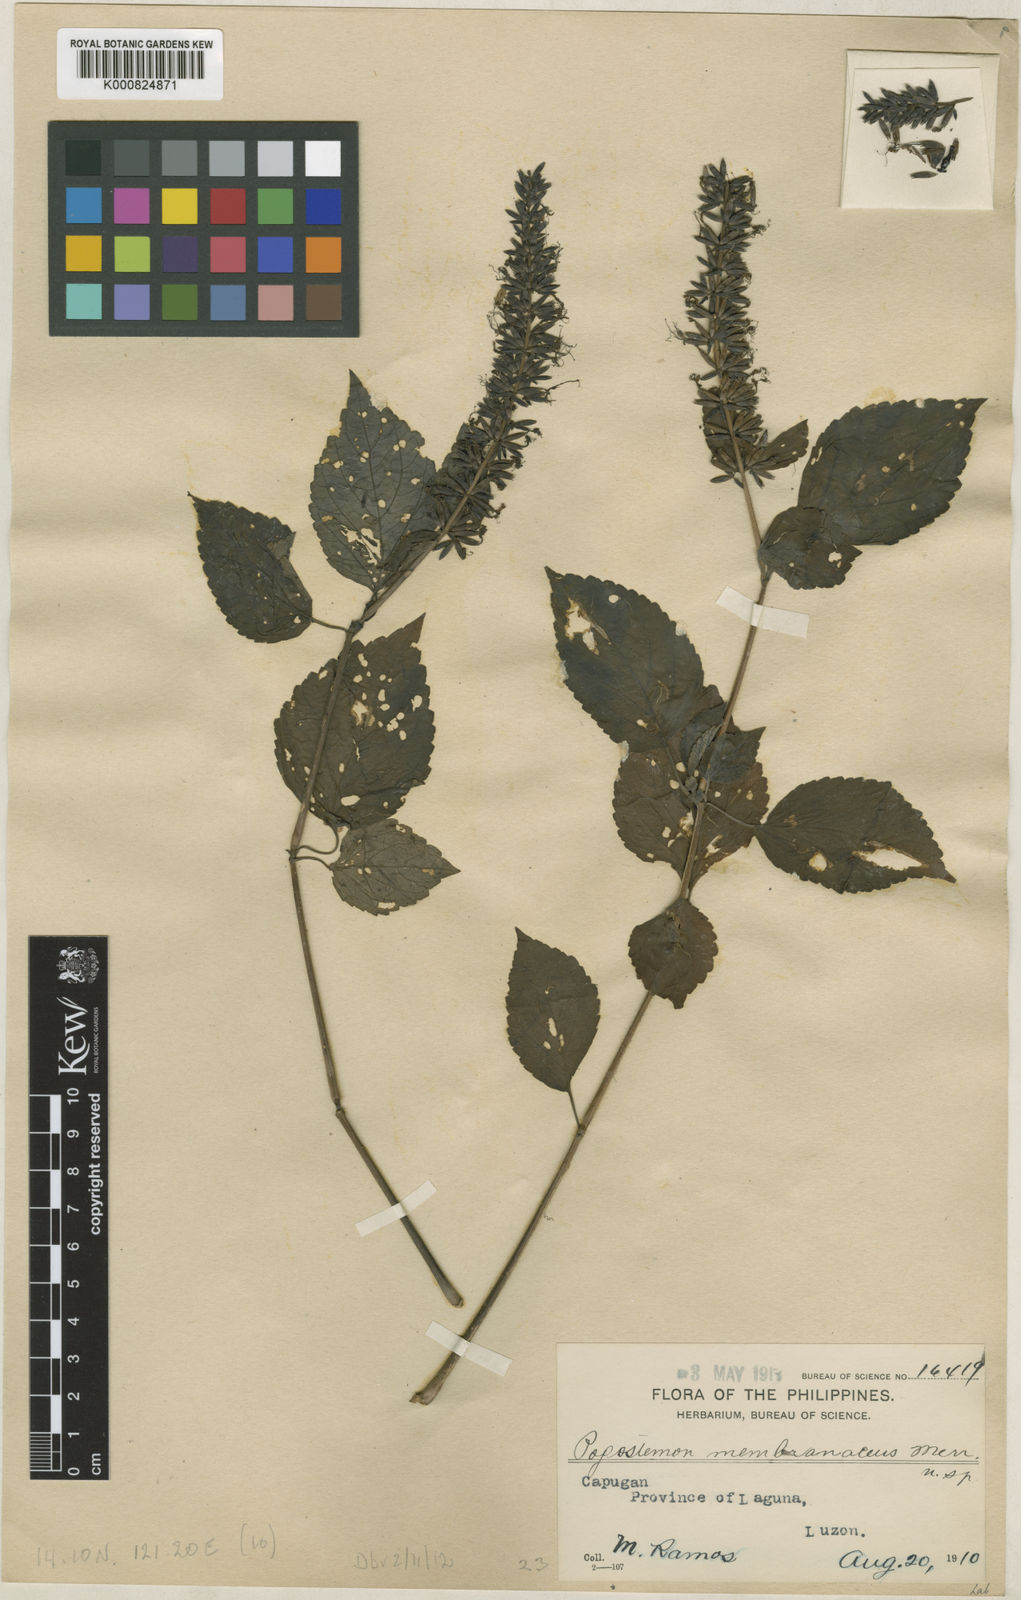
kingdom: Plantae
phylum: Tracheophyta
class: Magnoliopsida
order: Lamiales
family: Lamiaceae
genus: Pogostemon
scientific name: Pogostemon philippinensis
